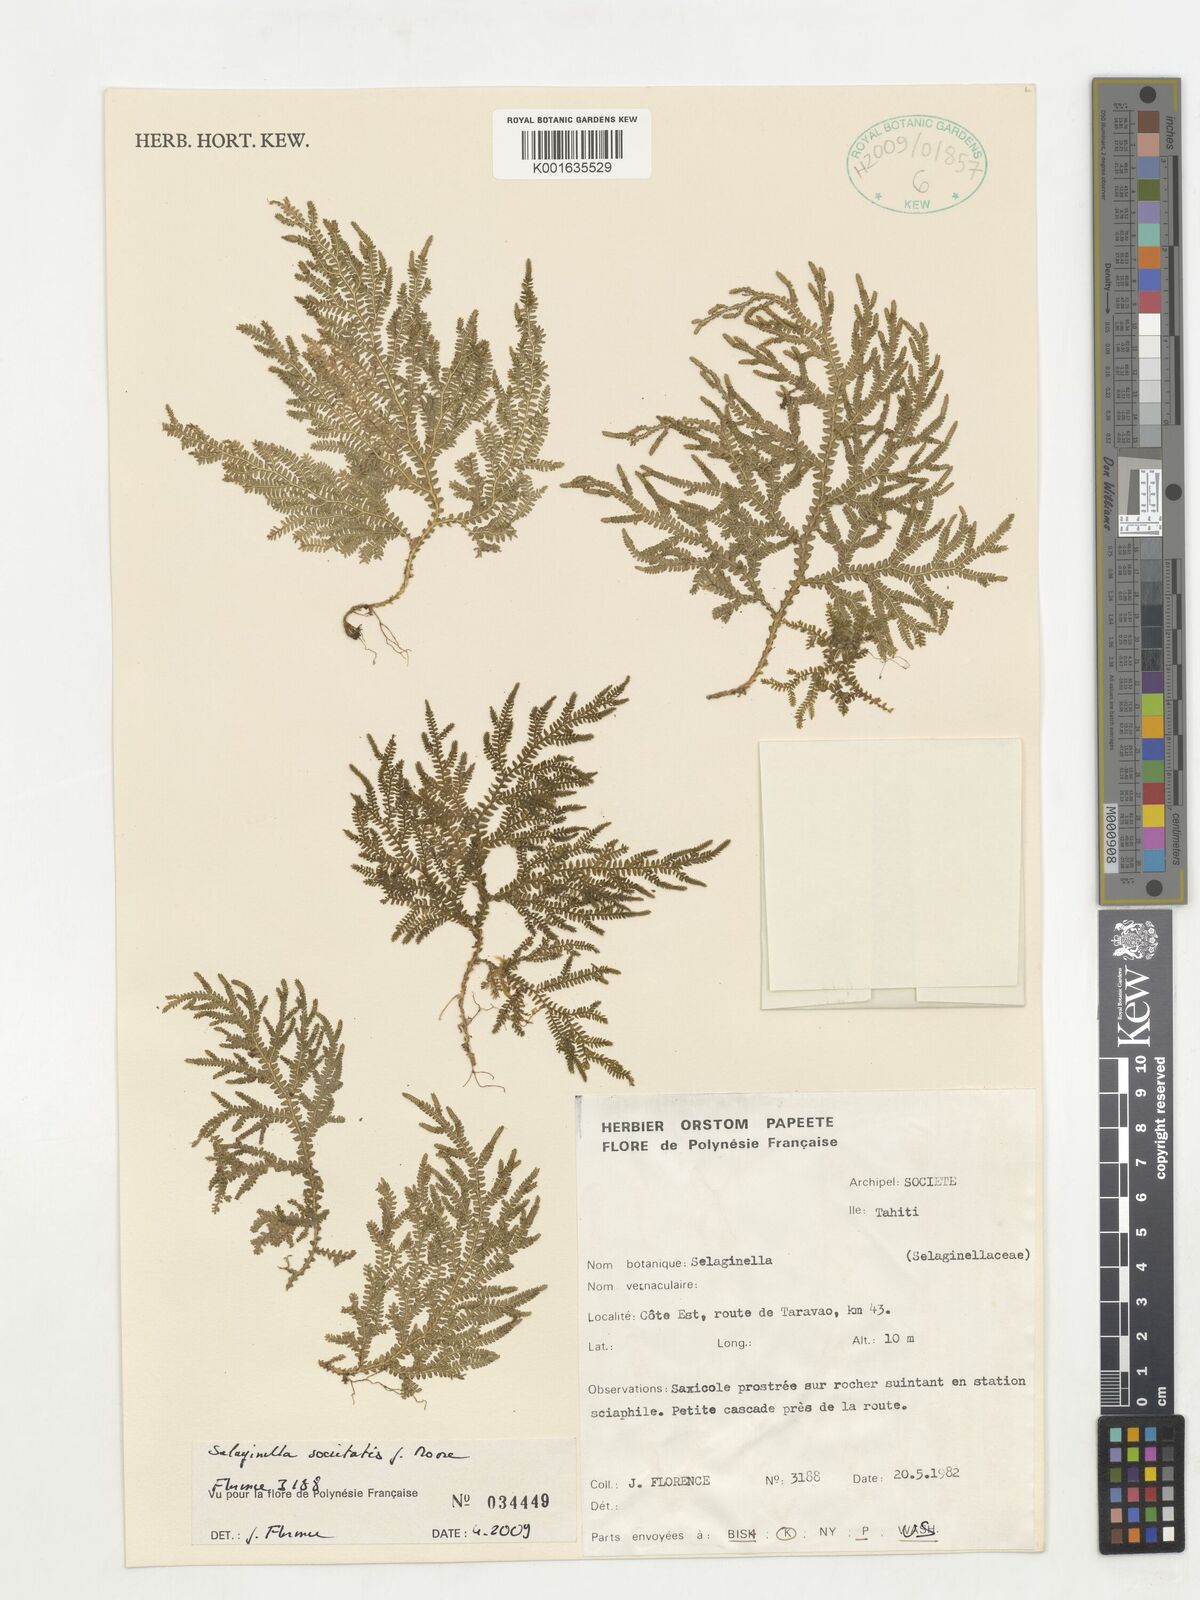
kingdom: Plantae
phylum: Tracheophyta
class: Lycopodiopsida
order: Selaginellales
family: Selaginellaceae
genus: Selaginella
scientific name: Selaginella societatis
